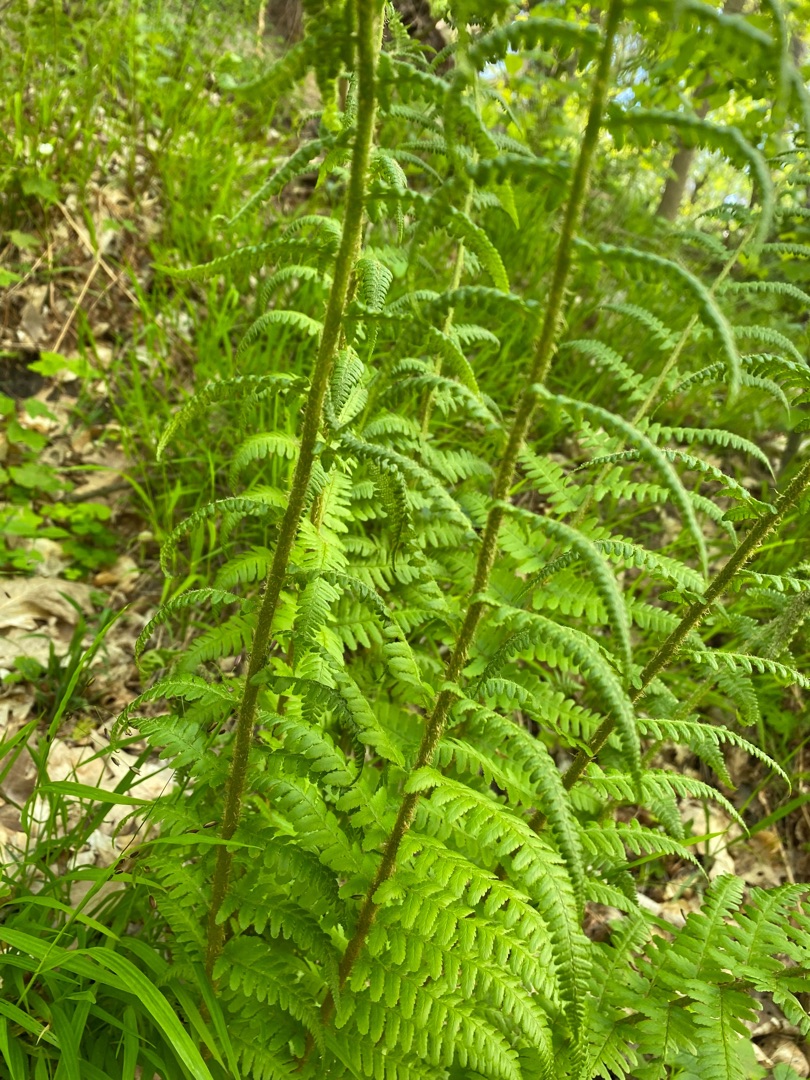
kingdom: Plantae
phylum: Tracheophyta
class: Polypodiopsida
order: Polypodiales
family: Dryopteridaceae
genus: Dryopteris
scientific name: Dryopteris filix-mas
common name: Almindelig mangeløv
